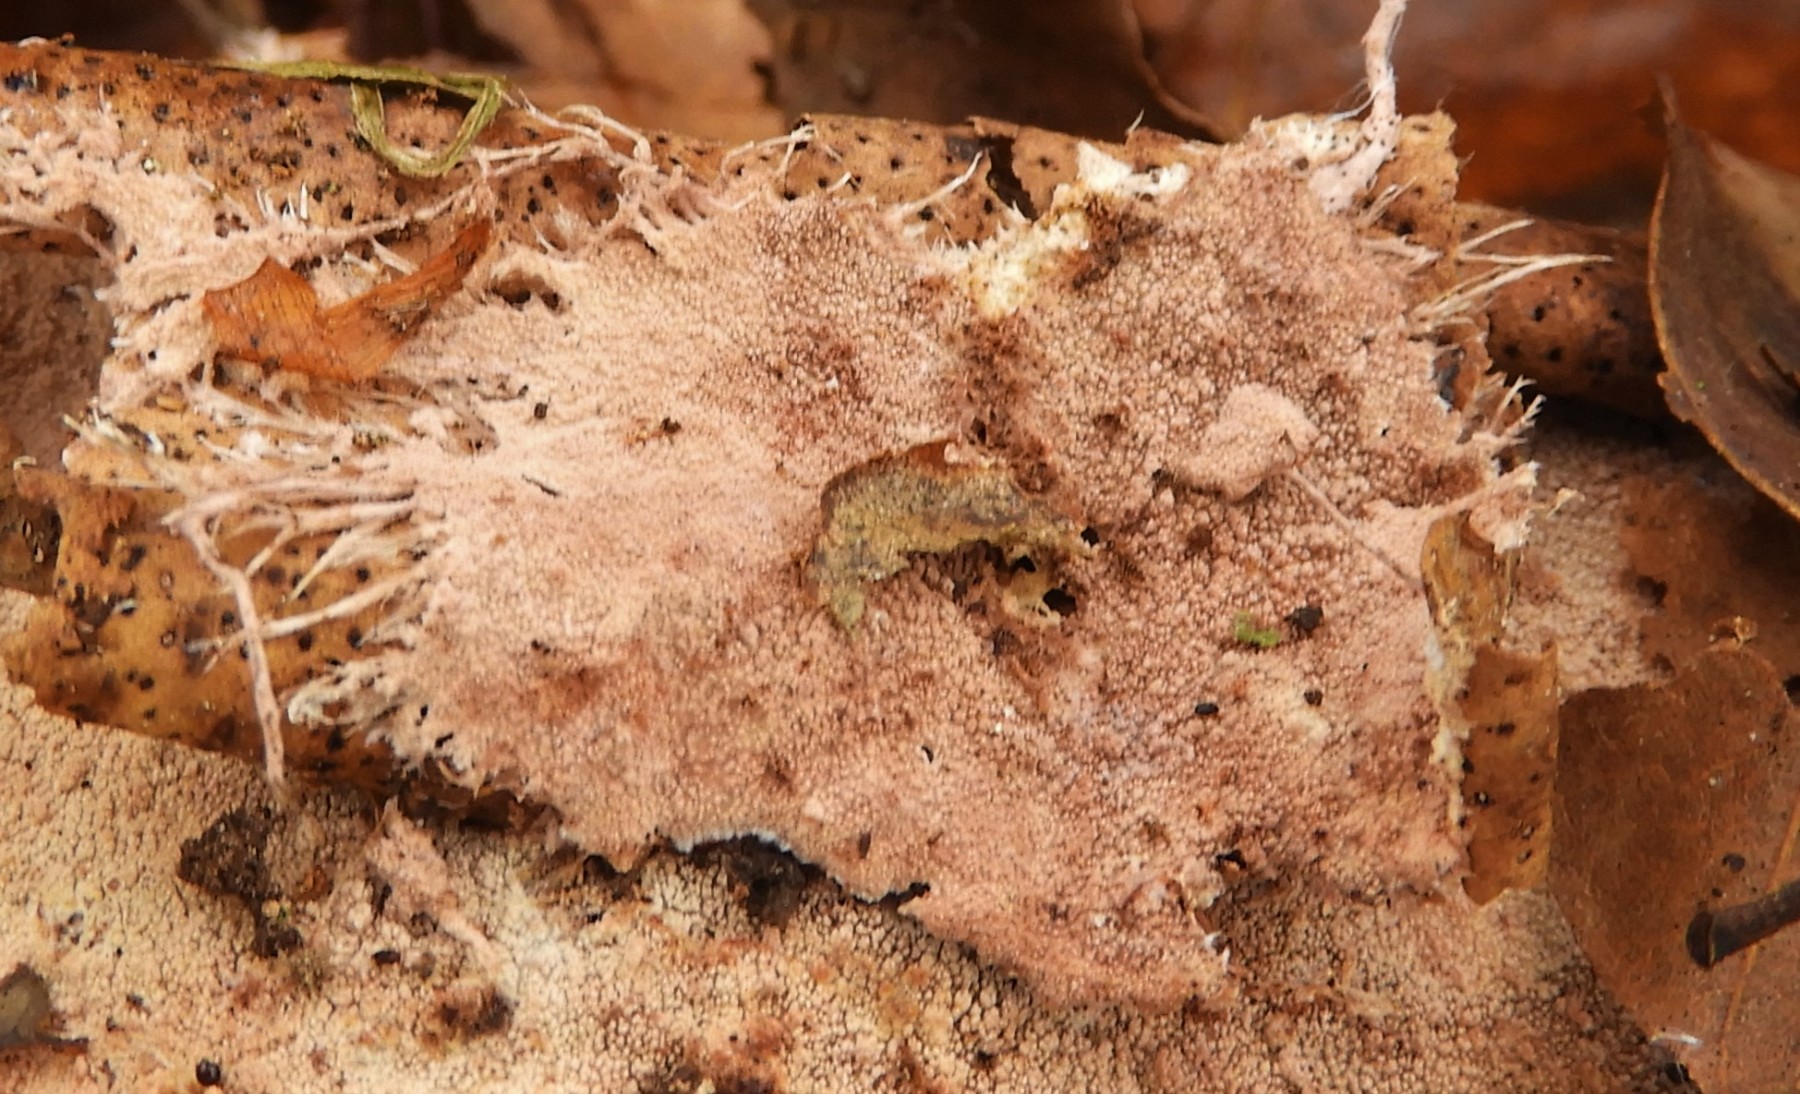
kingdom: Fungi
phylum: Basidiomycota
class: Agaricomycetes
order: Polyporales
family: Steccherinaceae
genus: Steccherinum
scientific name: Steccherinum fimbriatum
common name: trådet skønpig
